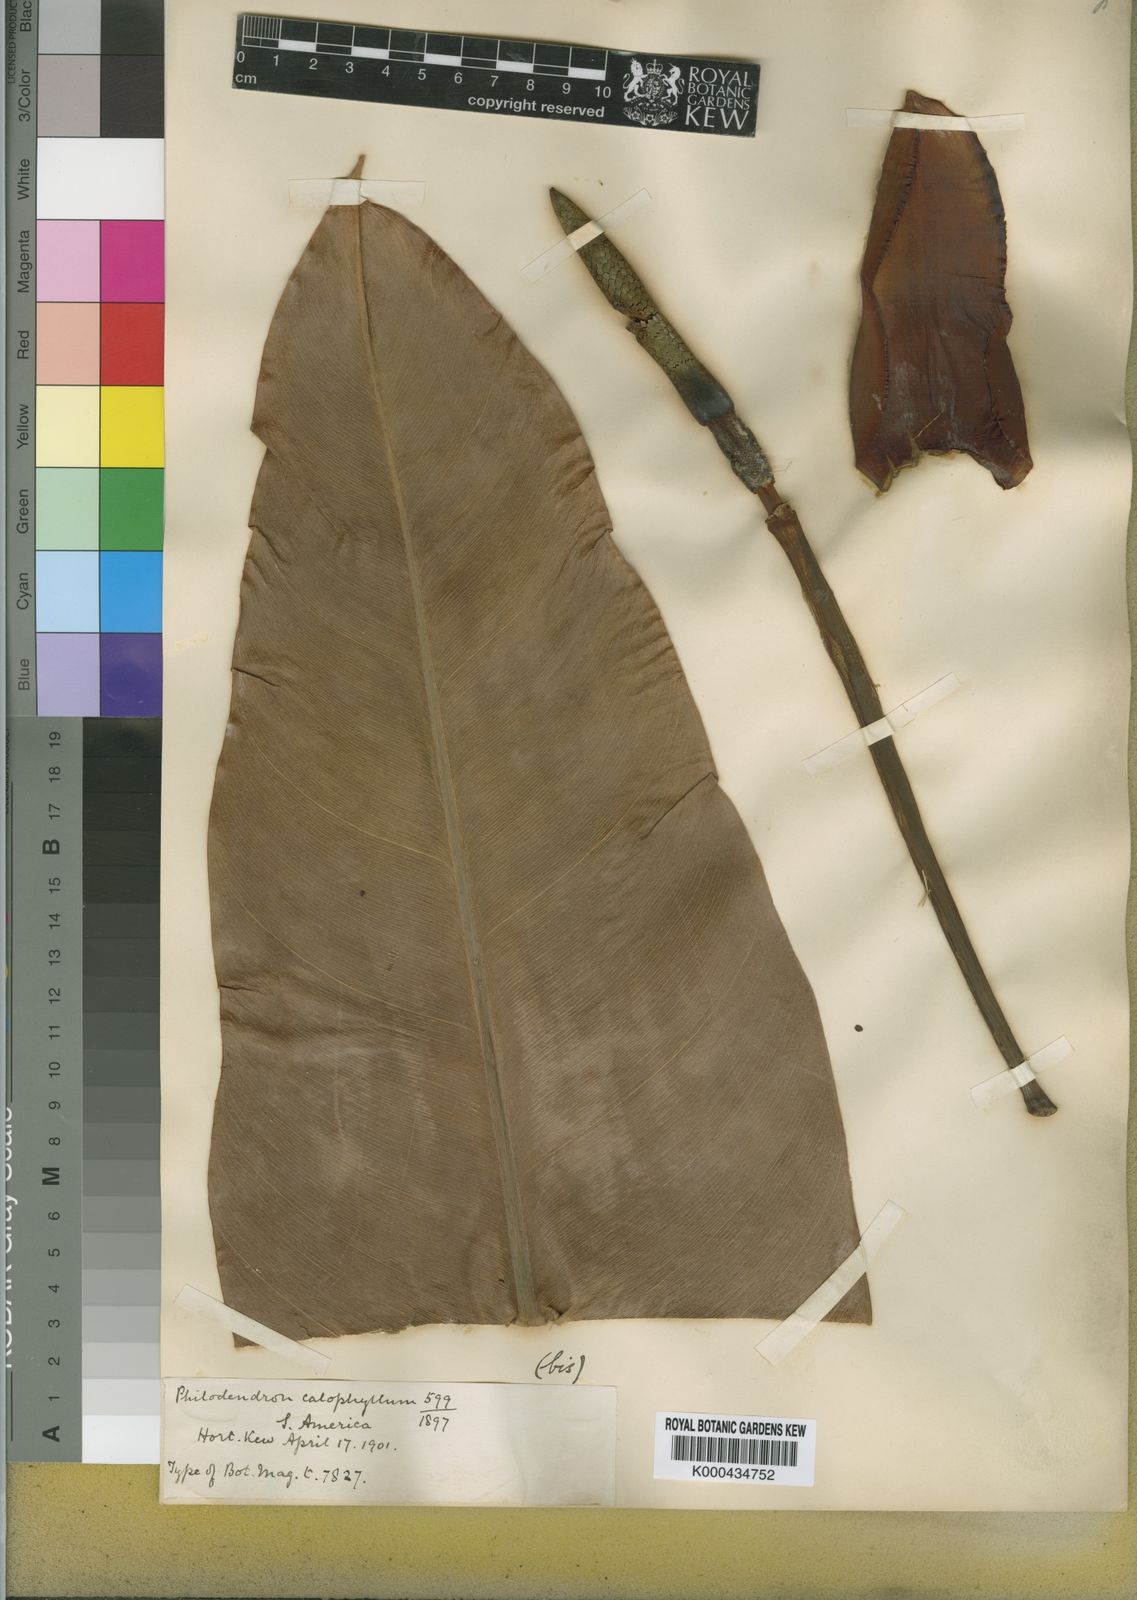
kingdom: Plantae
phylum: Tracheophyta
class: Liliopsida
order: Alismatales
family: Araceae
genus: Philodendron
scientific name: Philodendron insigne
